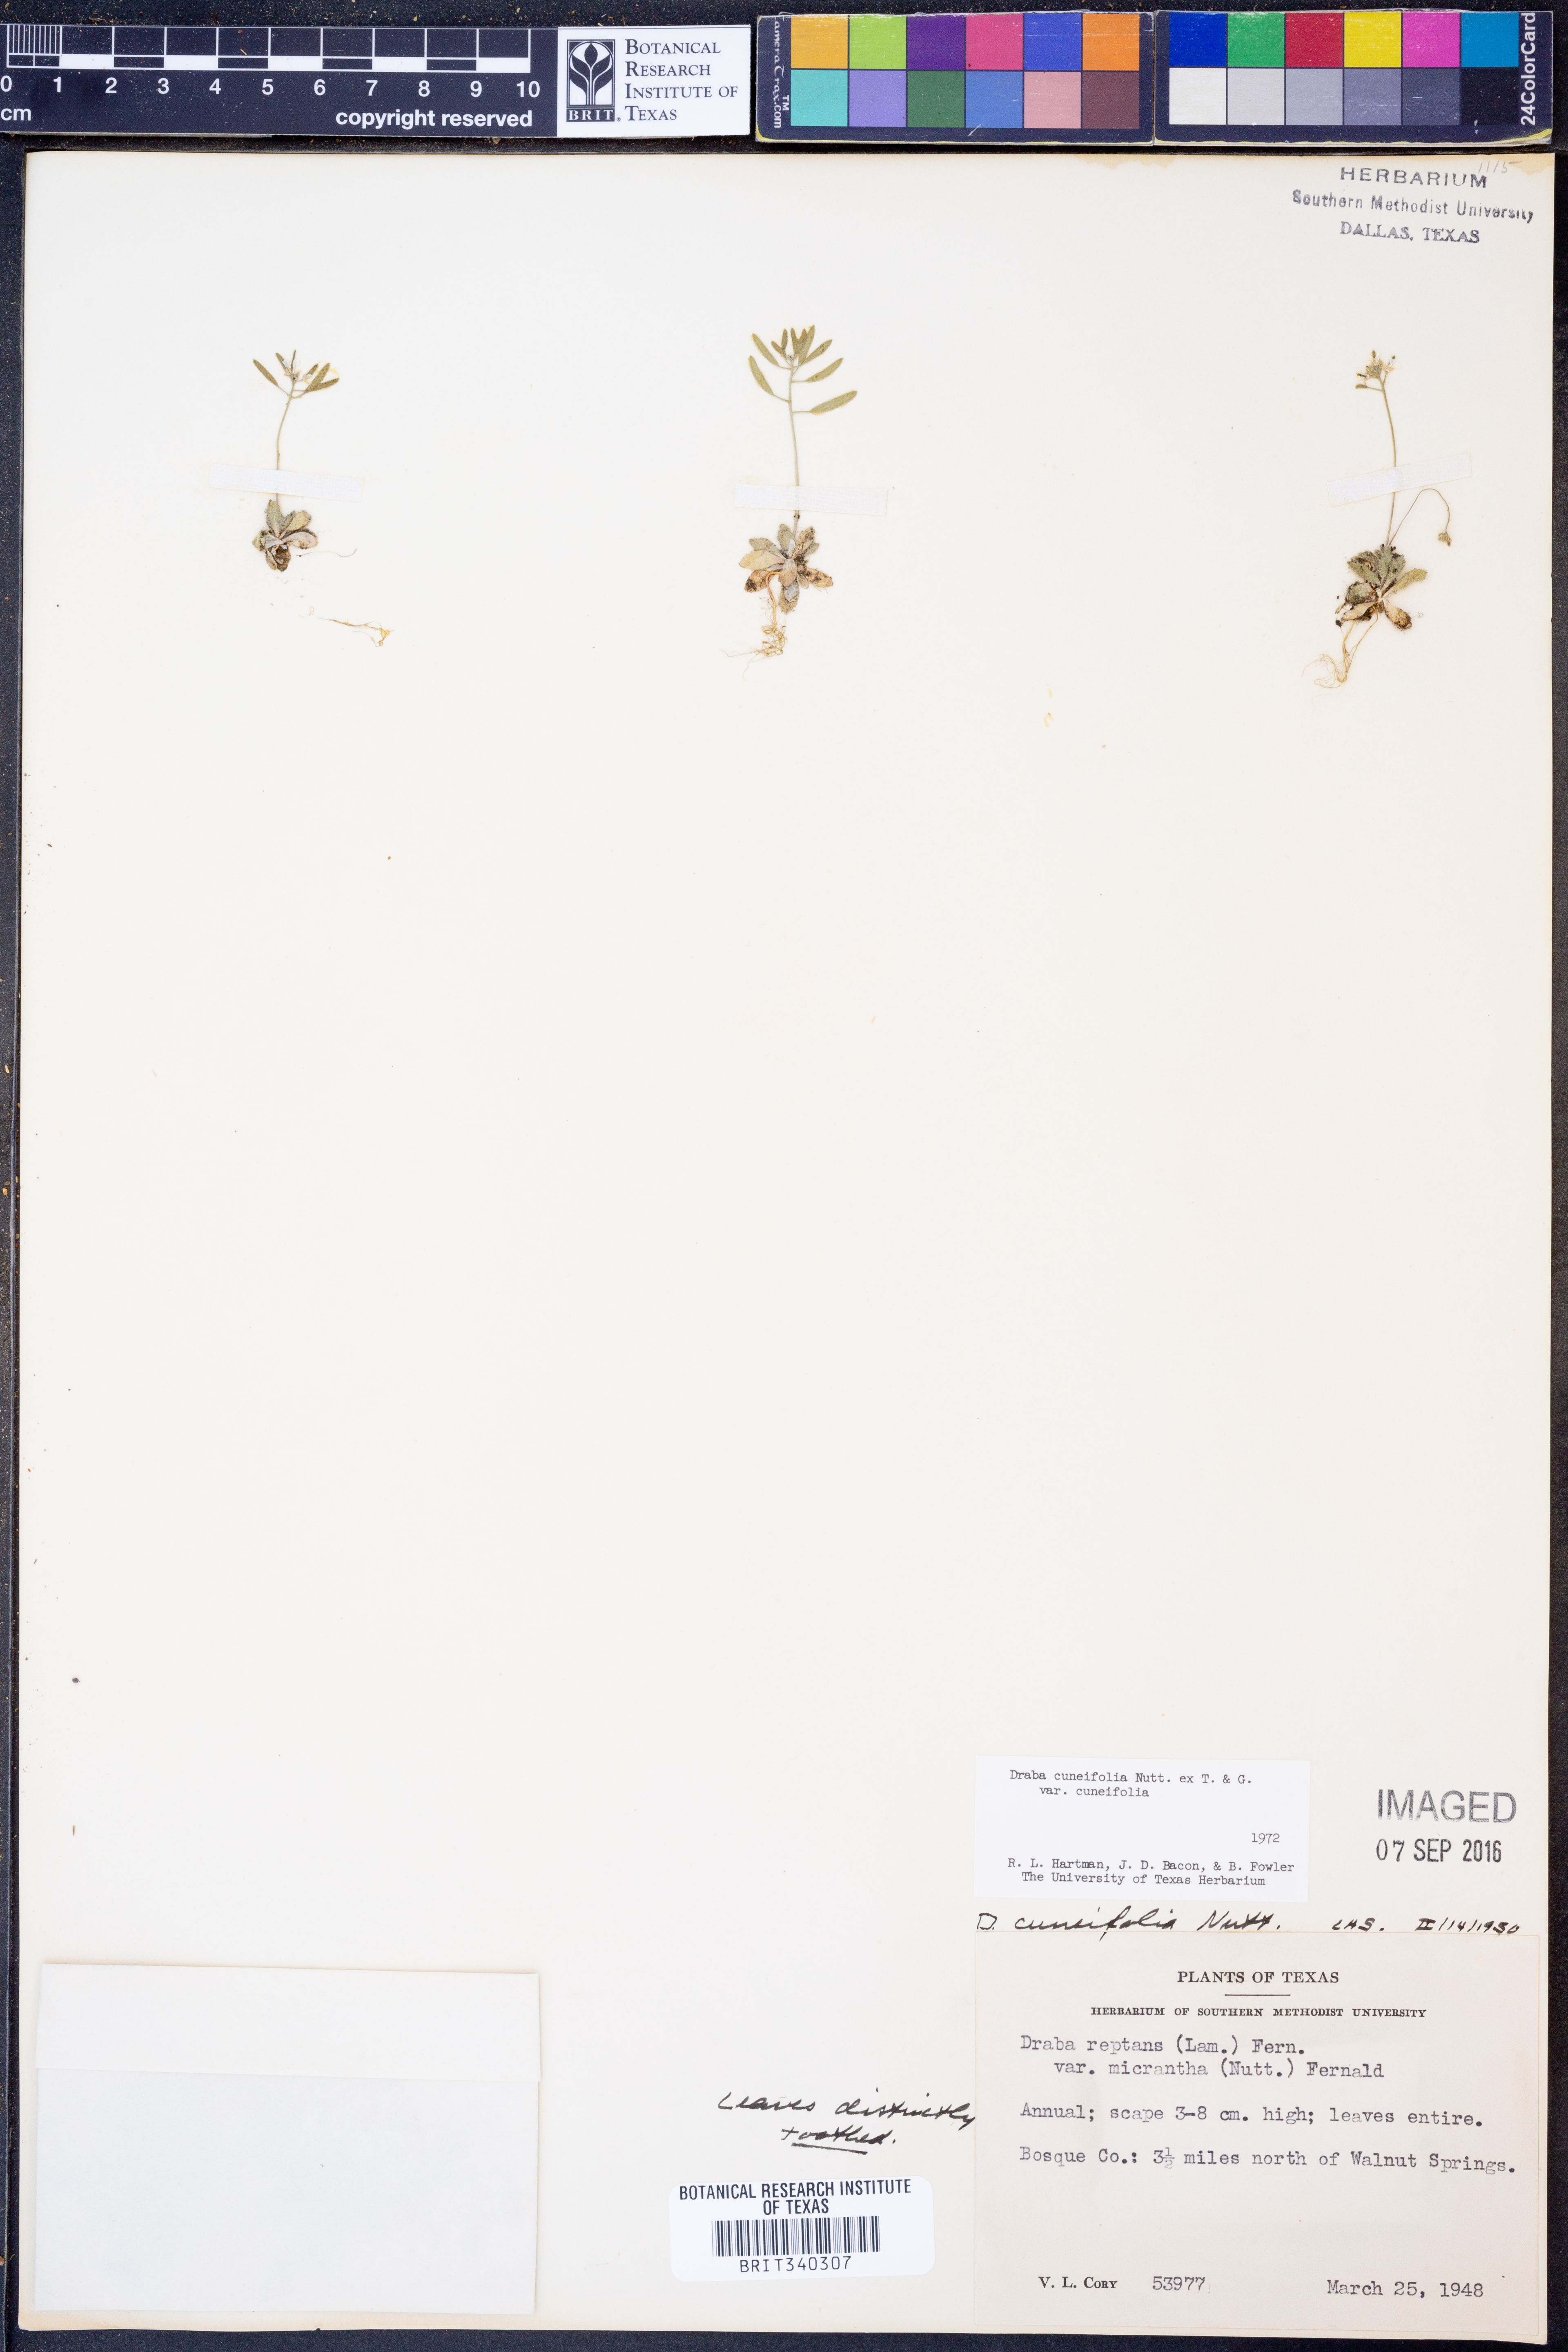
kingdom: Plantae
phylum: Tracheophyta
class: Magnoliopsida
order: Brassicales
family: Brassicaceae
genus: Tomostima
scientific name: Tomostima cuneifolia
